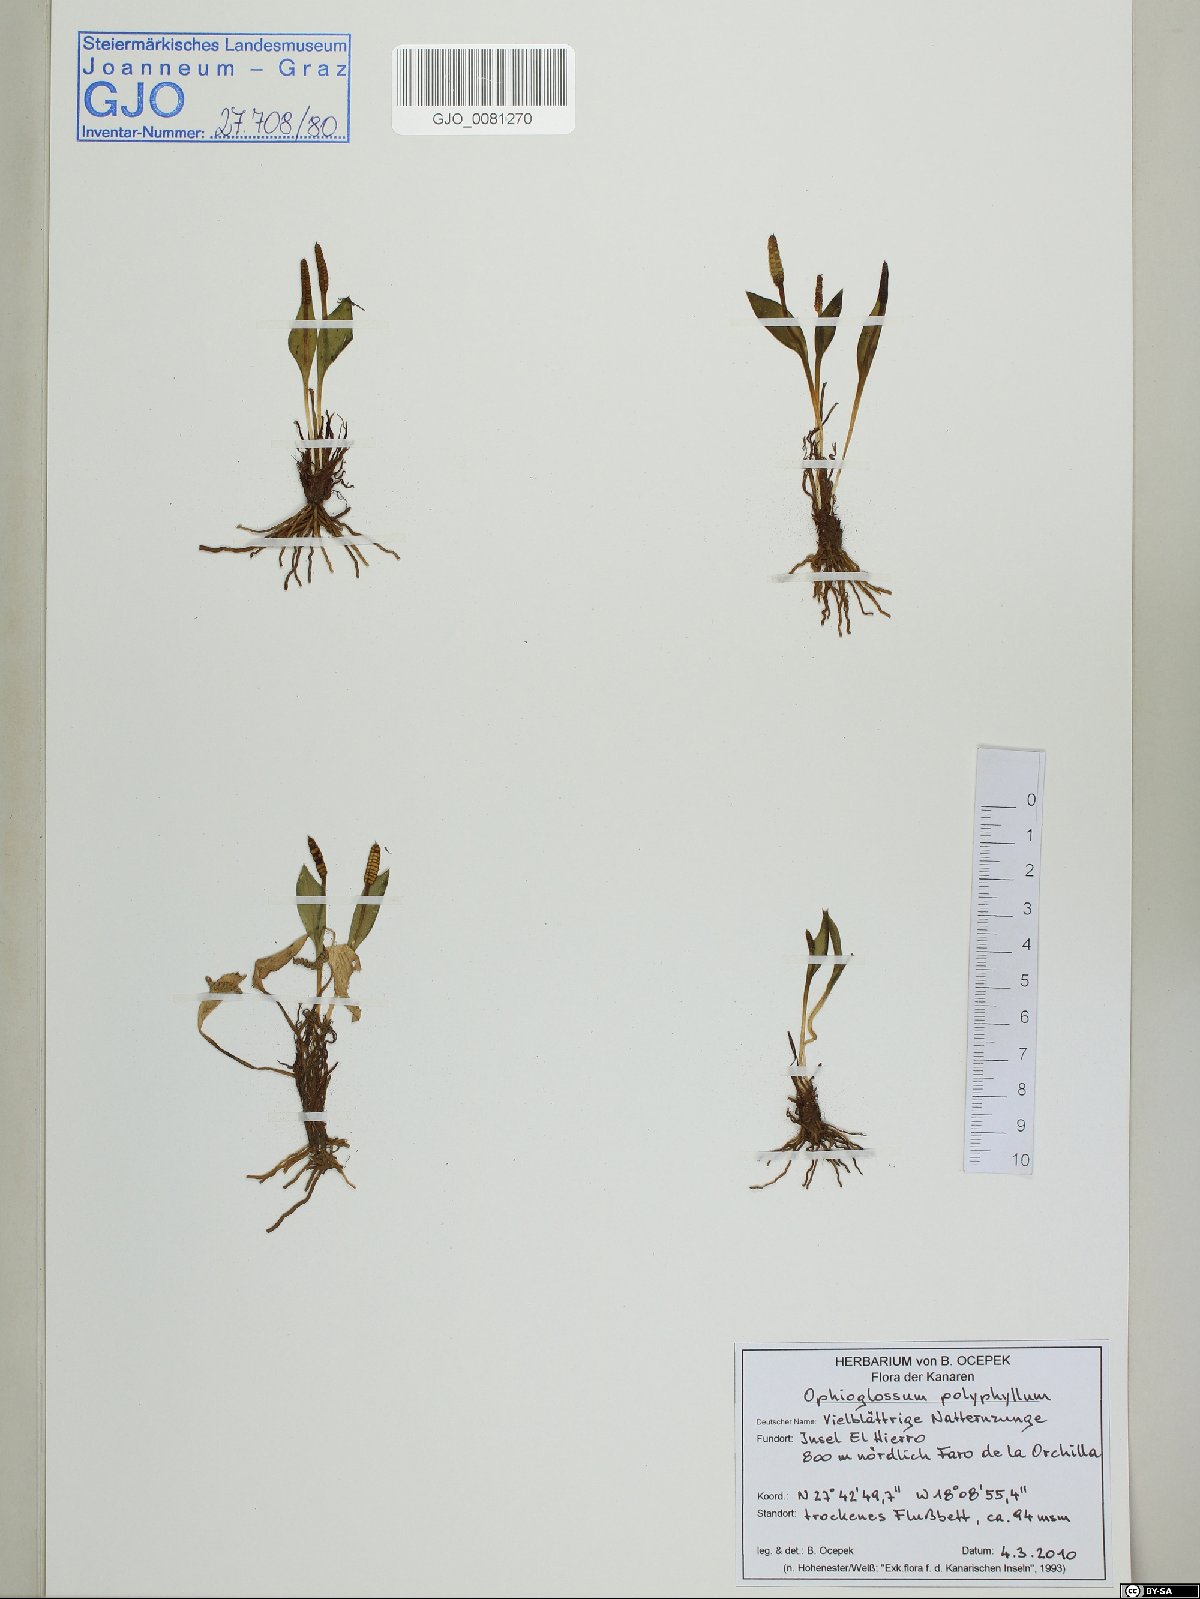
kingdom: Plantae
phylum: Tracheophyta
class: Polypodiopsida
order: Ophioglossales
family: Ophioglossaceae
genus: Ophioglossum
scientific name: Ophioglossum polyphyllum
